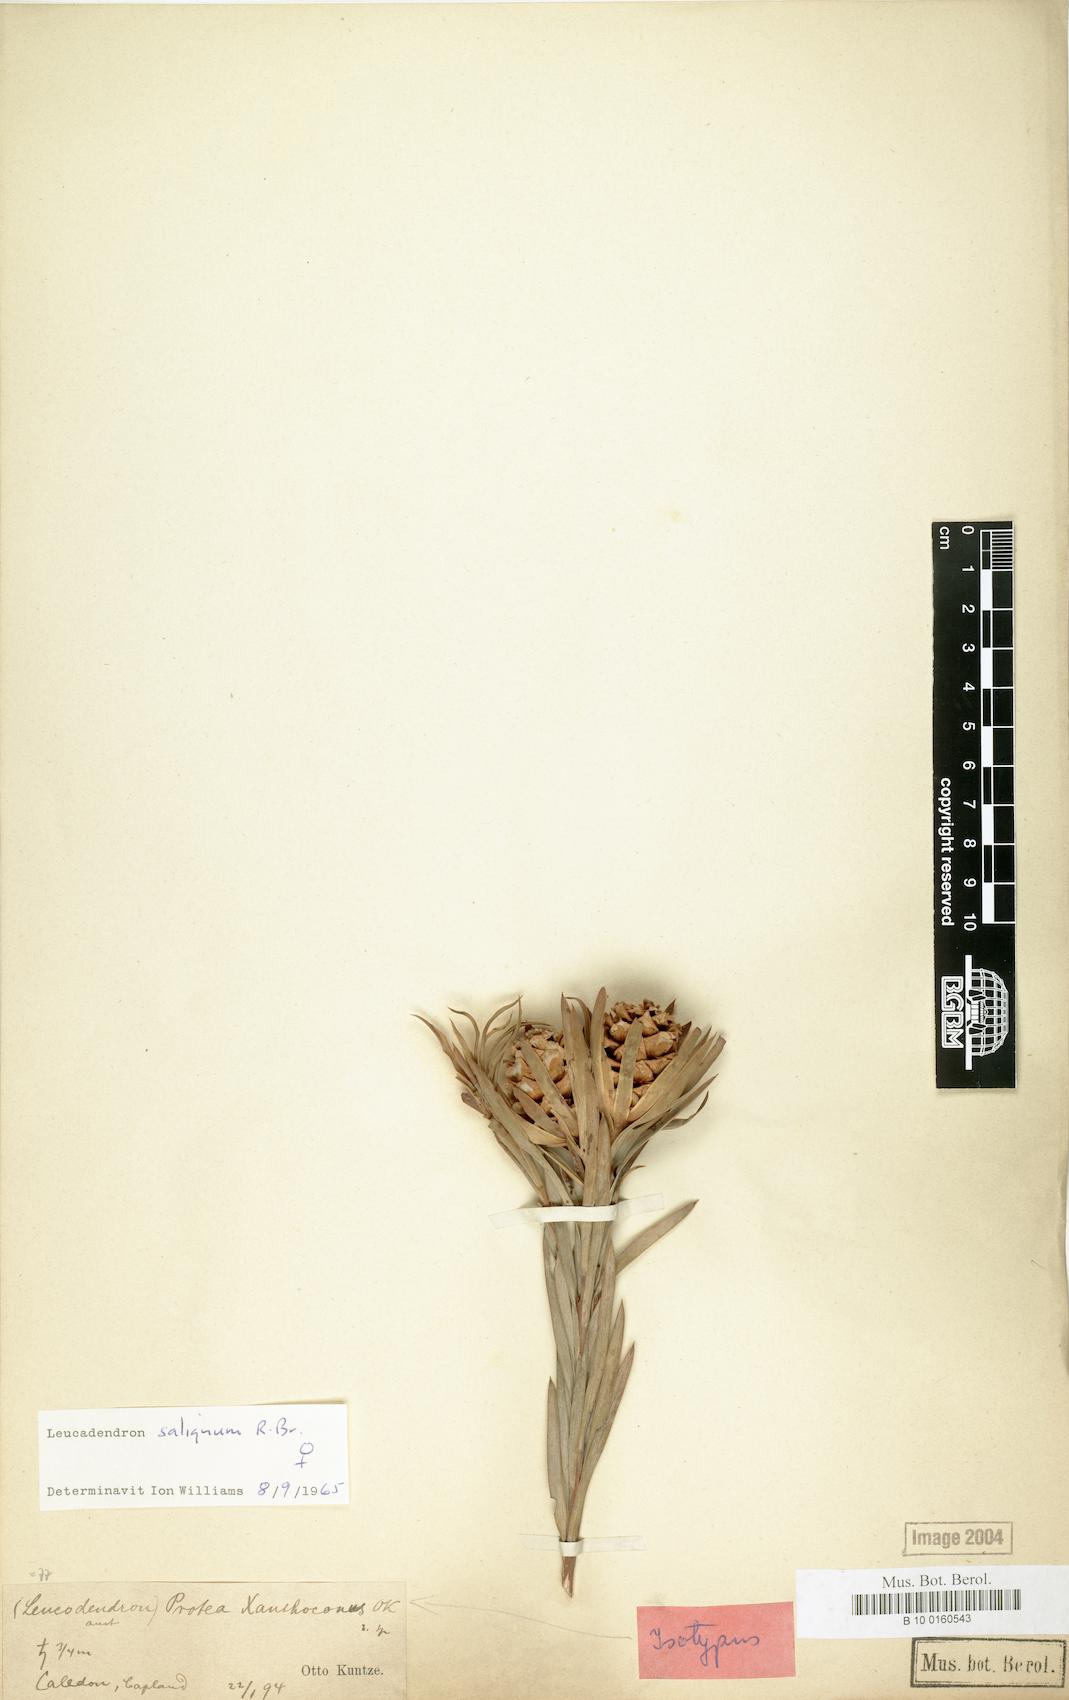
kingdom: Plantae
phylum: Tracheophyta
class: Magnoliopsida
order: Proteales
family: Proteaceae
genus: Leucadendron
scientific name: Leucadendron xanthoconus
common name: Sickle-leaf conebush
